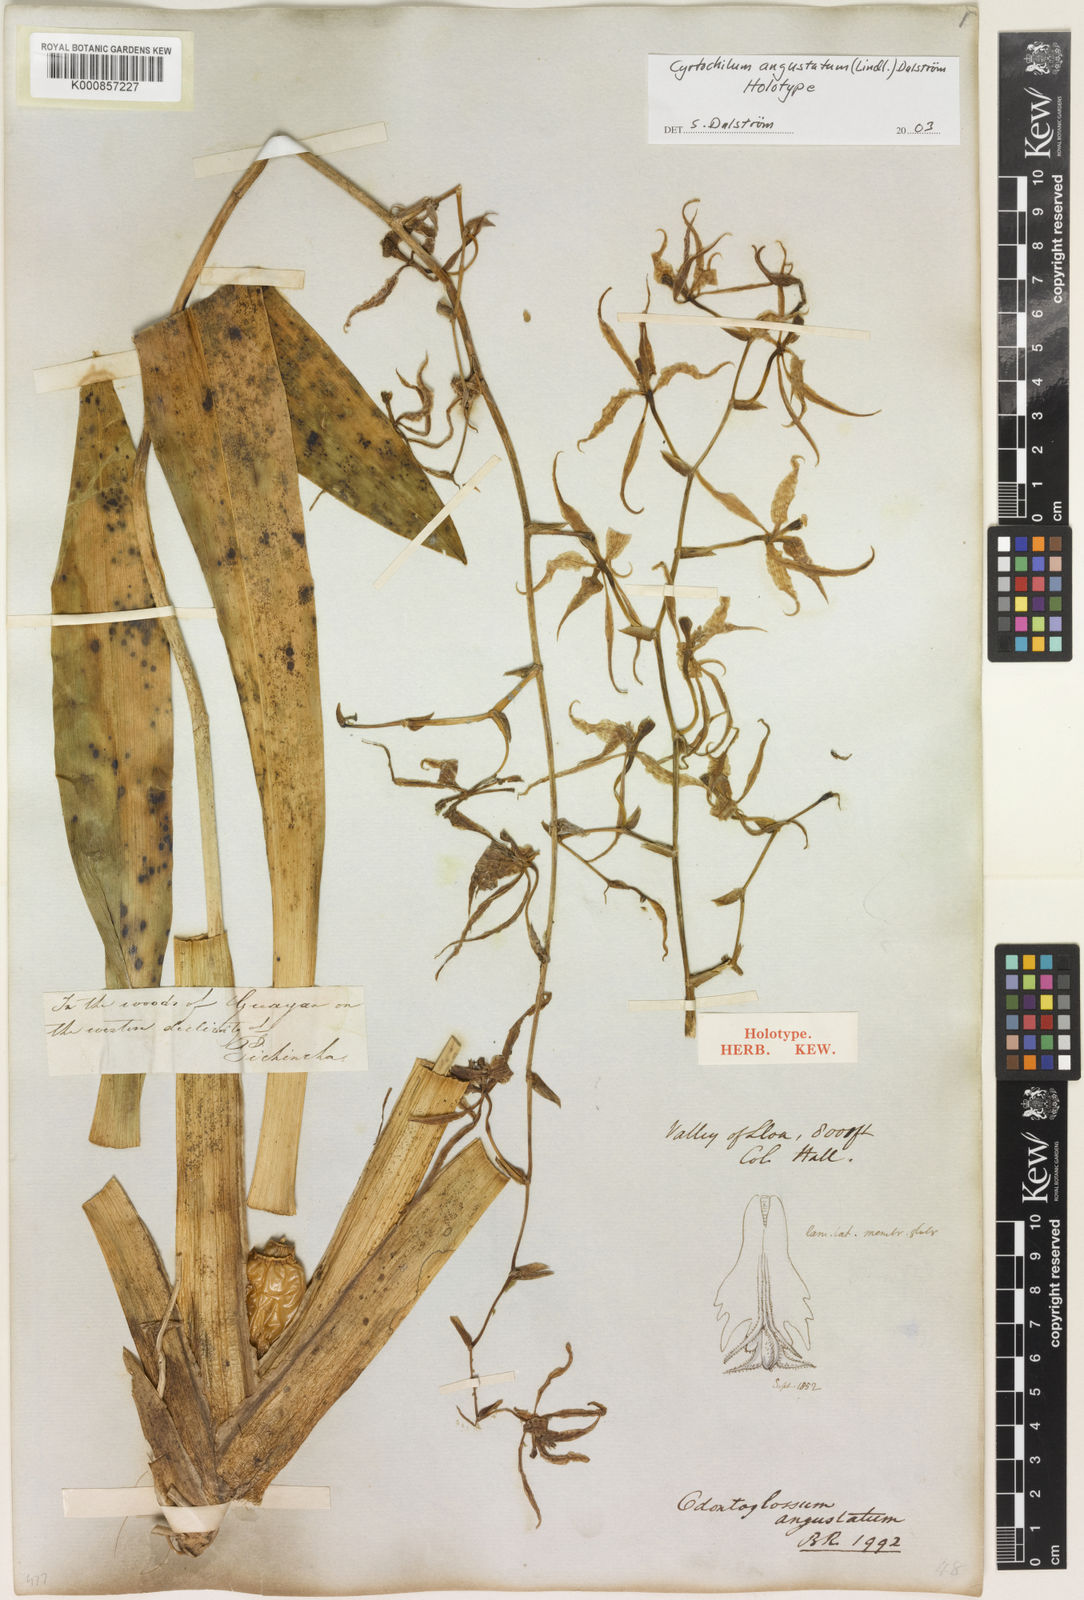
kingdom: Plantae
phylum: Tracheophyta
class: Liliopsida
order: Asparagales
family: Orchidaceae
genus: Cyrtochilum
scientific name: Cyrtochilum
